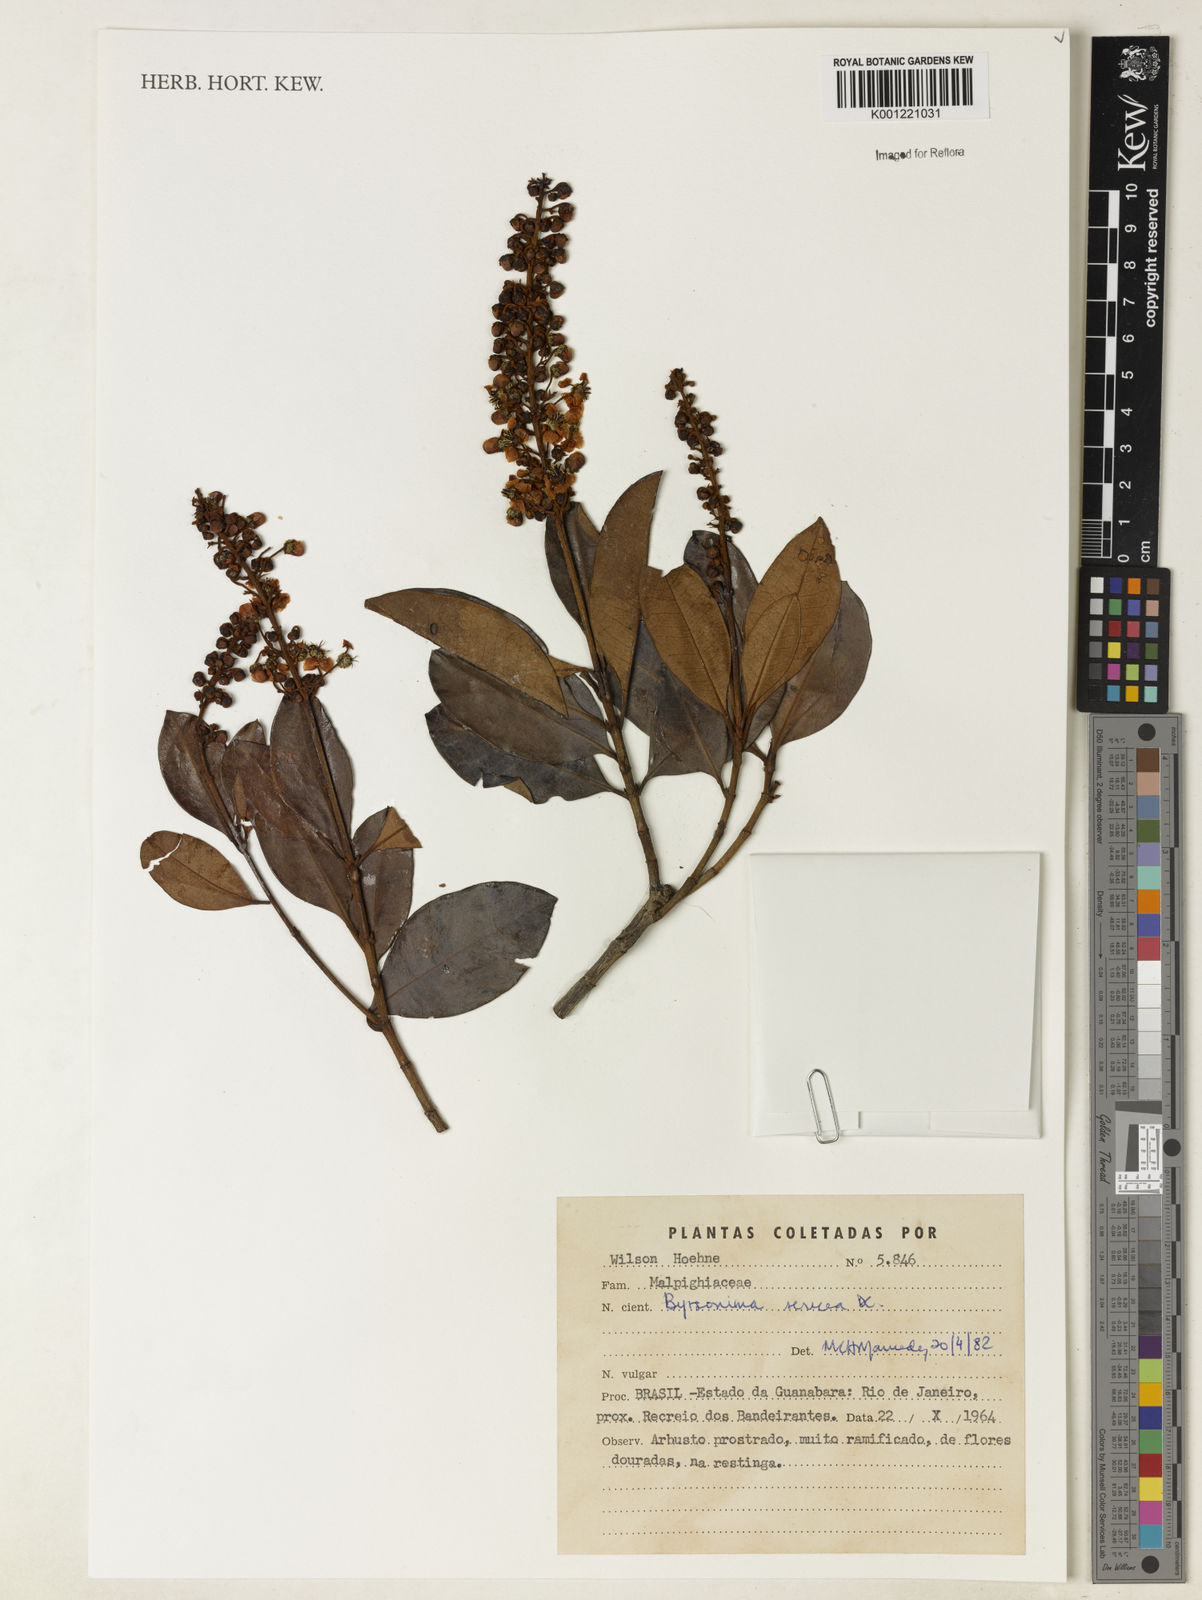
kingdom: Plantae
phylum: Tracheophyta
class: Magnoliopsida
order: Malpighiales
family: Malpighiaceae
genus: Byrsonima
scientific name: Byrsonima sericea
